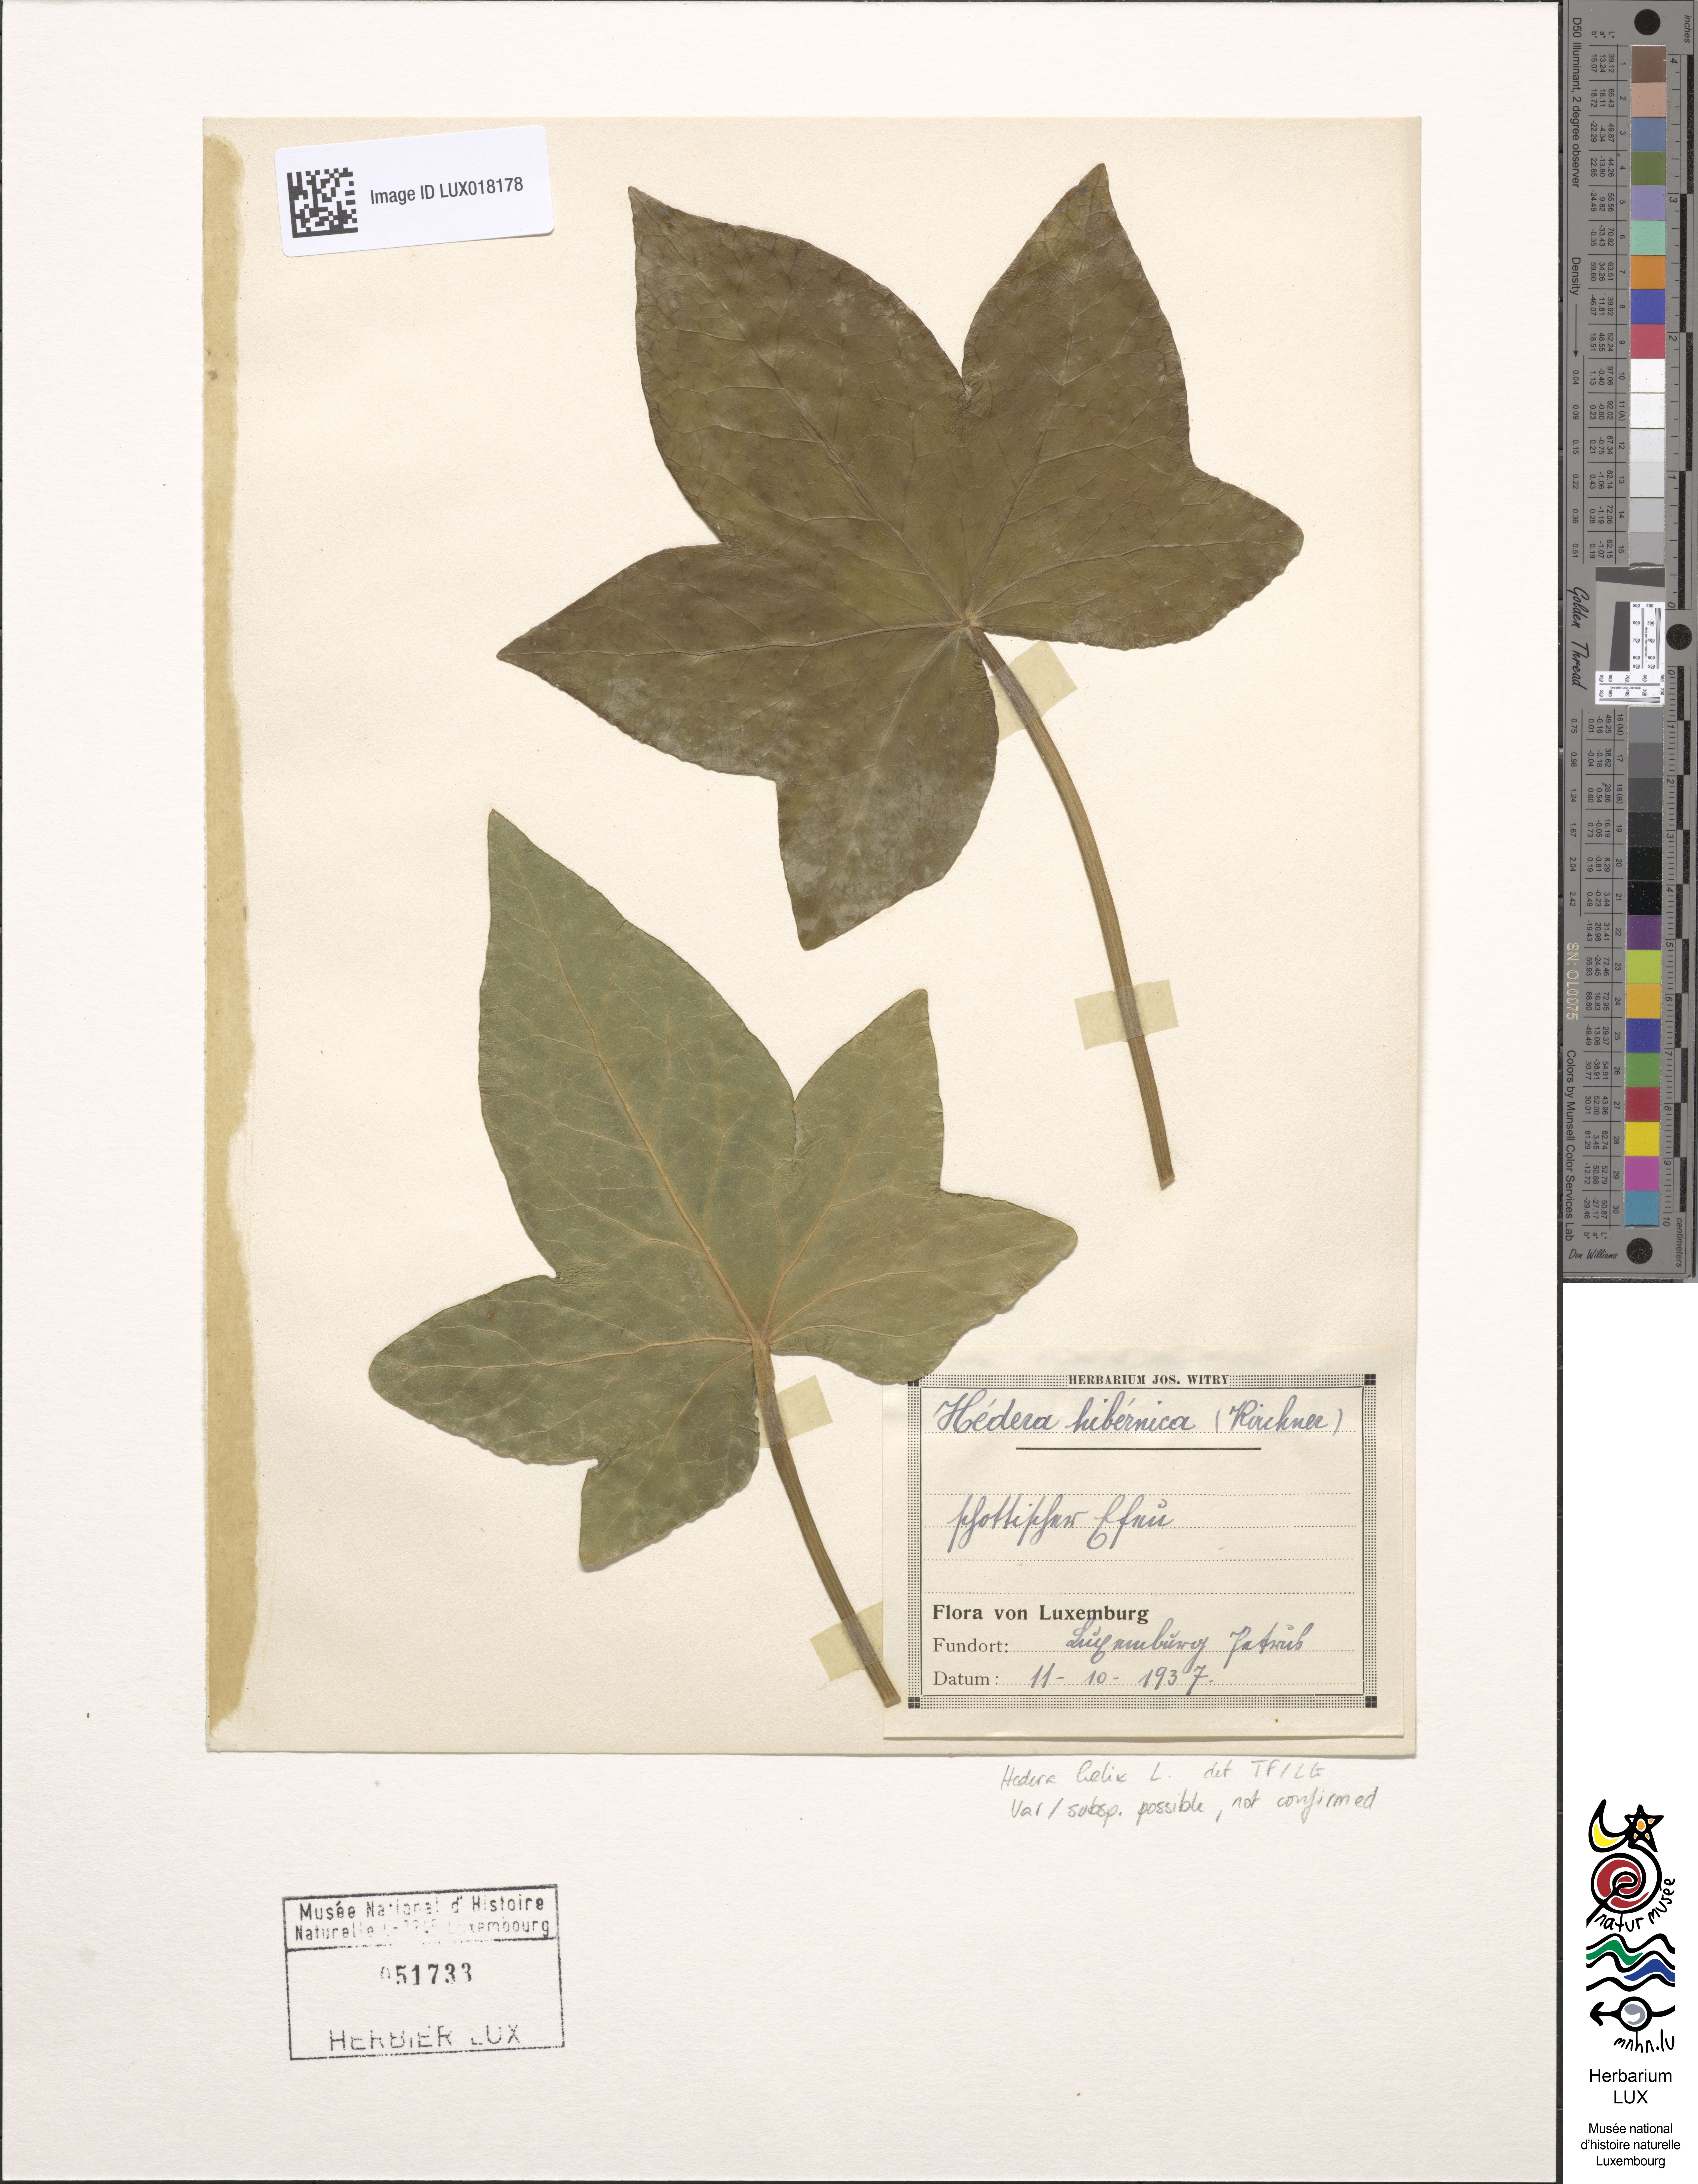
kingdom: Plantae
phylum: Tracheophyta
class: Magnoliopsida
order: Apiales
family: Araliaceae
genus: Hedera
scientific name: Hedera helix
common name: Ivy
